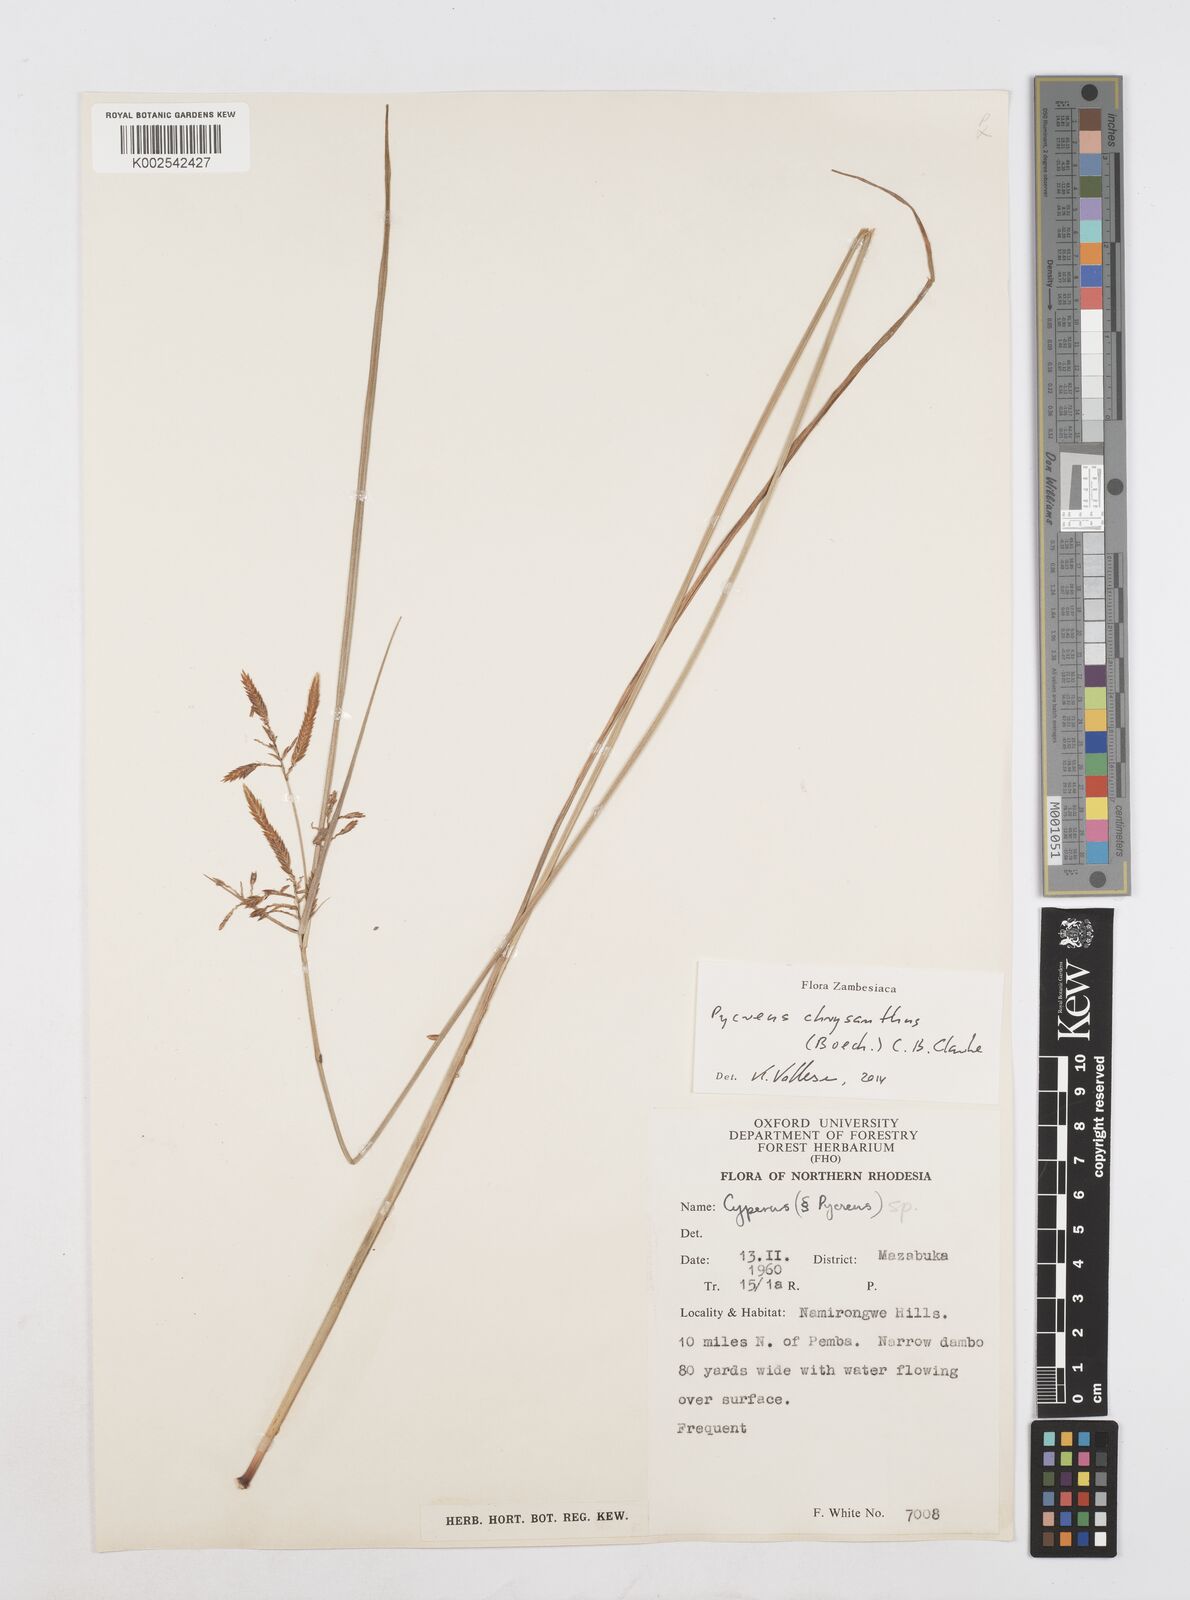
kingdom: Plantae
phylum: Tracheophyta
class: Liliopsida
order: Poales
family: Cyperaceae
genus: Cyperus
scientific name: Cyperus chrysanthus
